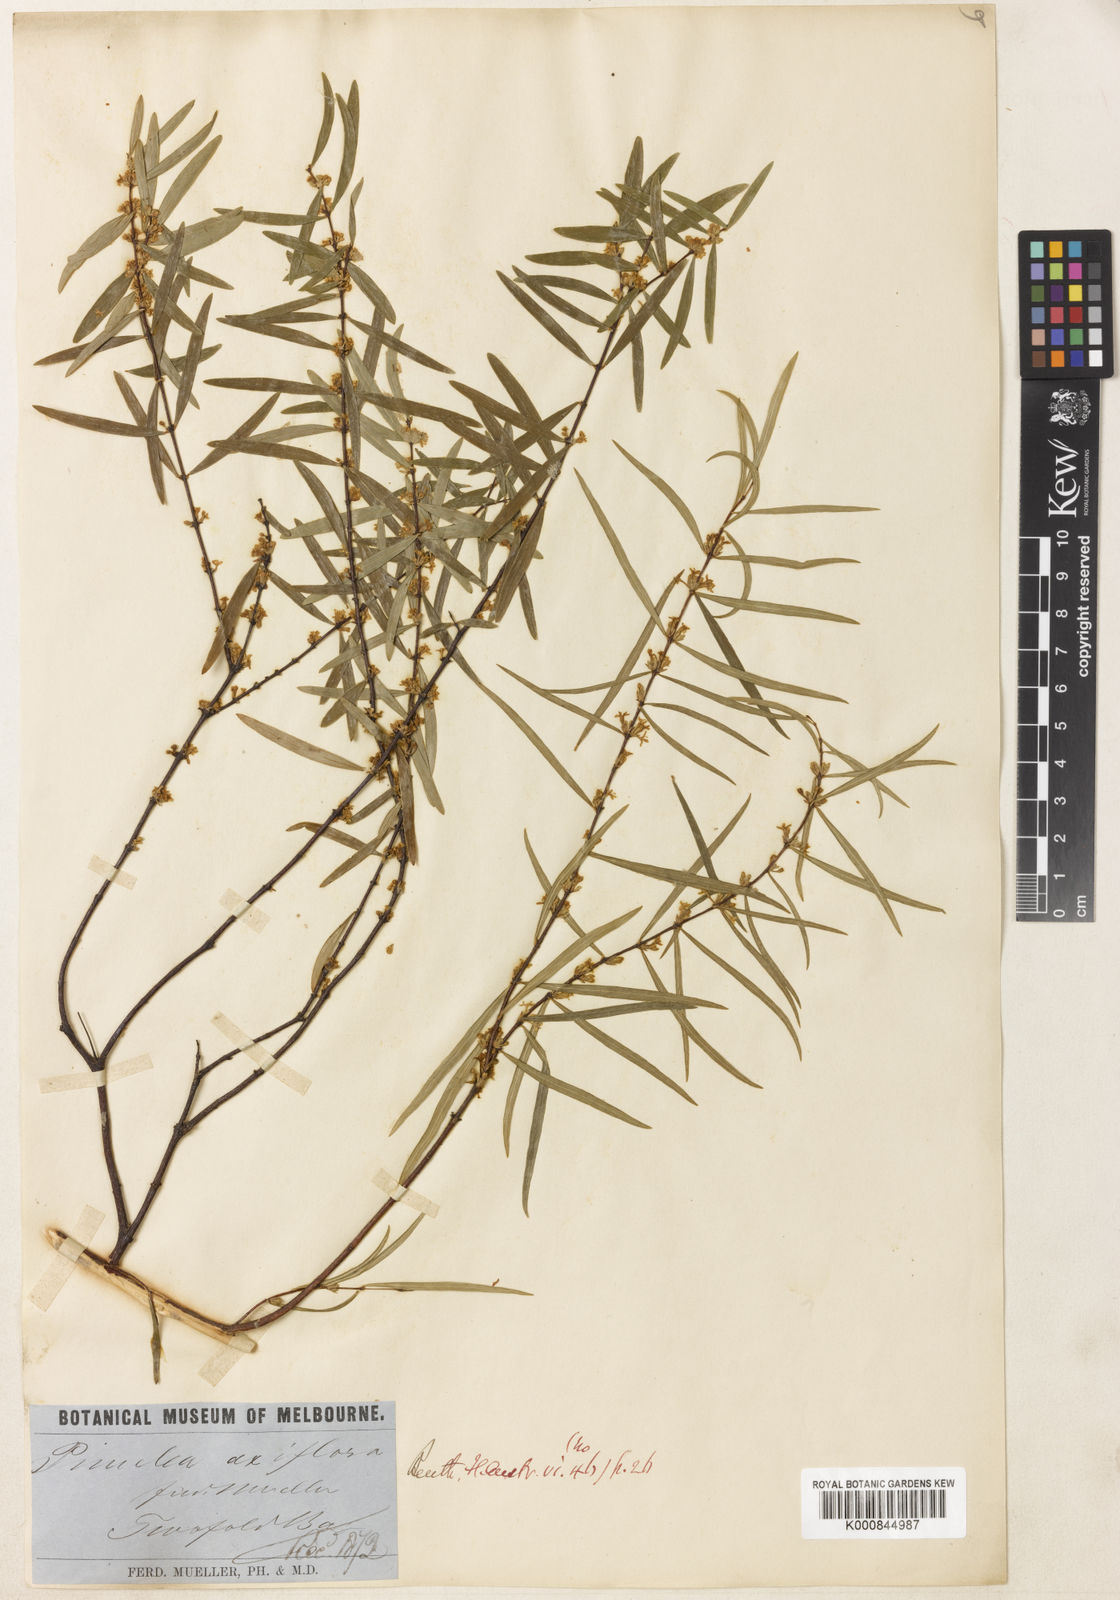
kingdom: Plantae
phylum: Tracheophyta
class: Magnoliopsida
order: Malvales
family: Thymelaeaceae
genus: Pimelea
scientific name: Pimelea
